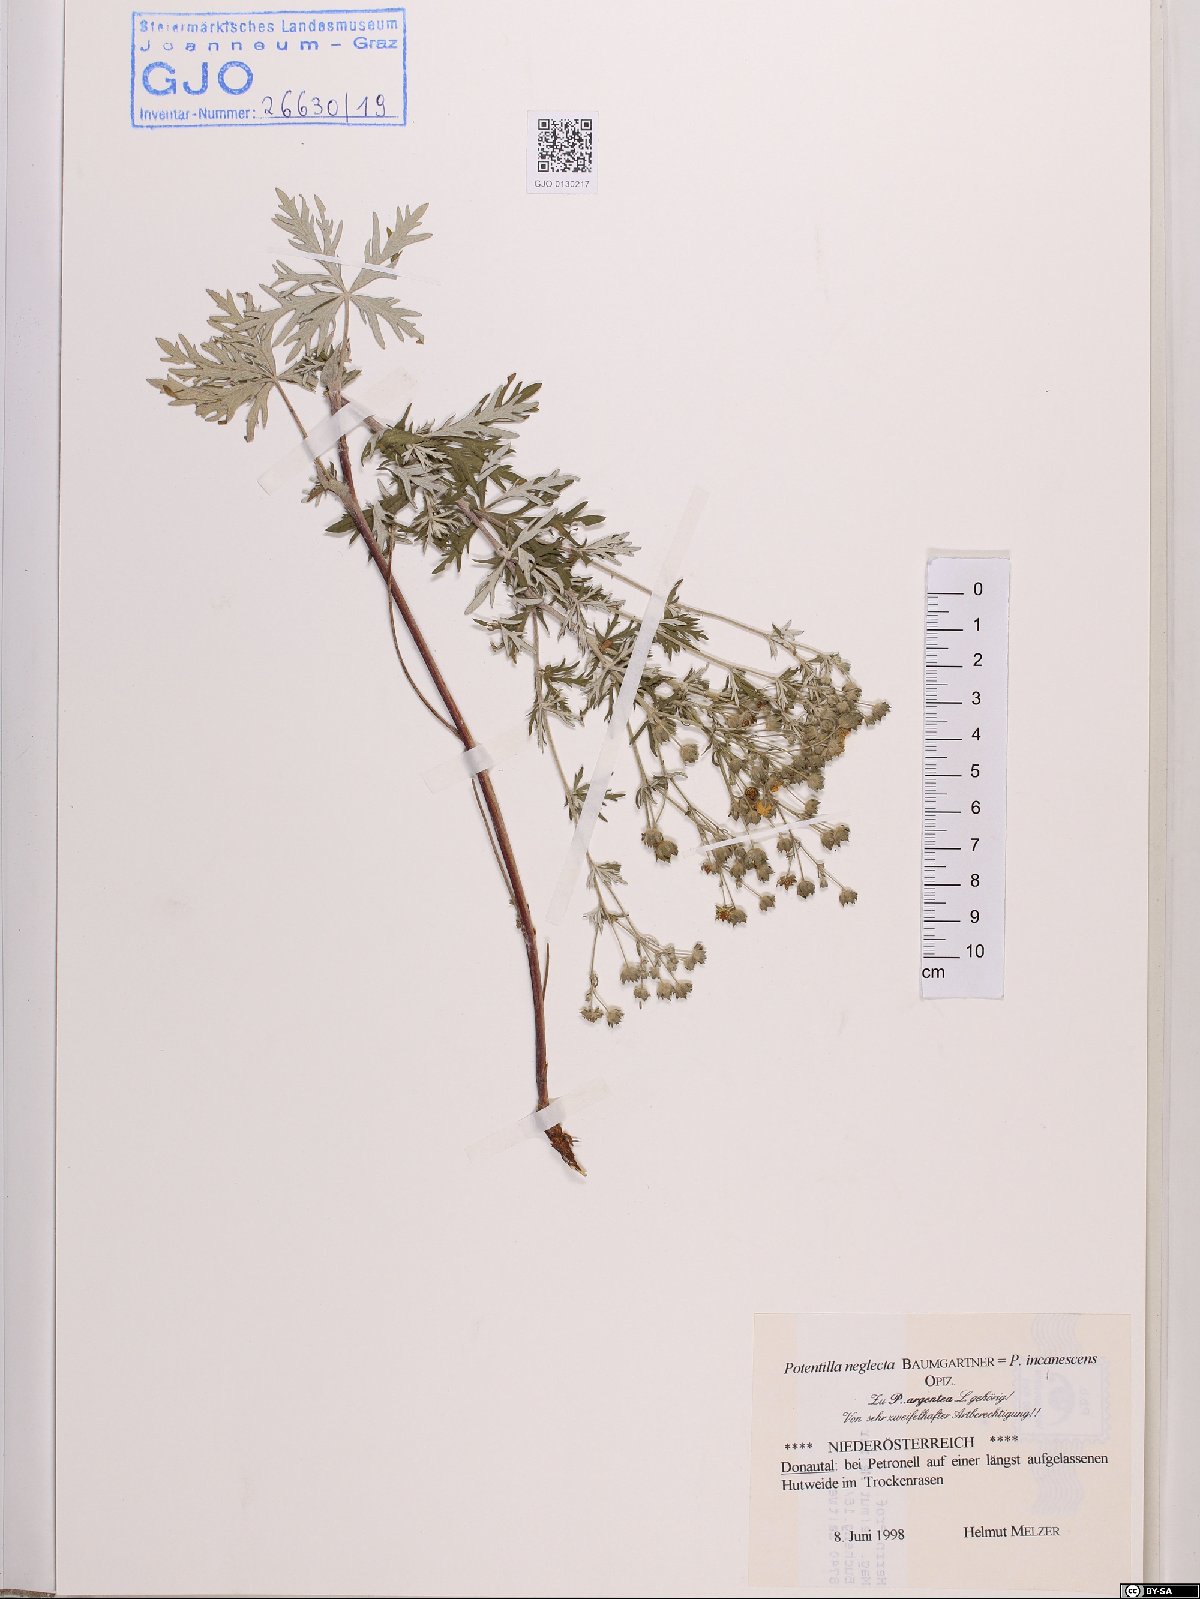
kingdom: Plantae
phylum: Tracheophyta
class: Magnoliopsida
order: Rosales
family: Rosaceae
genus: Potentilla
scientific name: Potentilla neglecta
